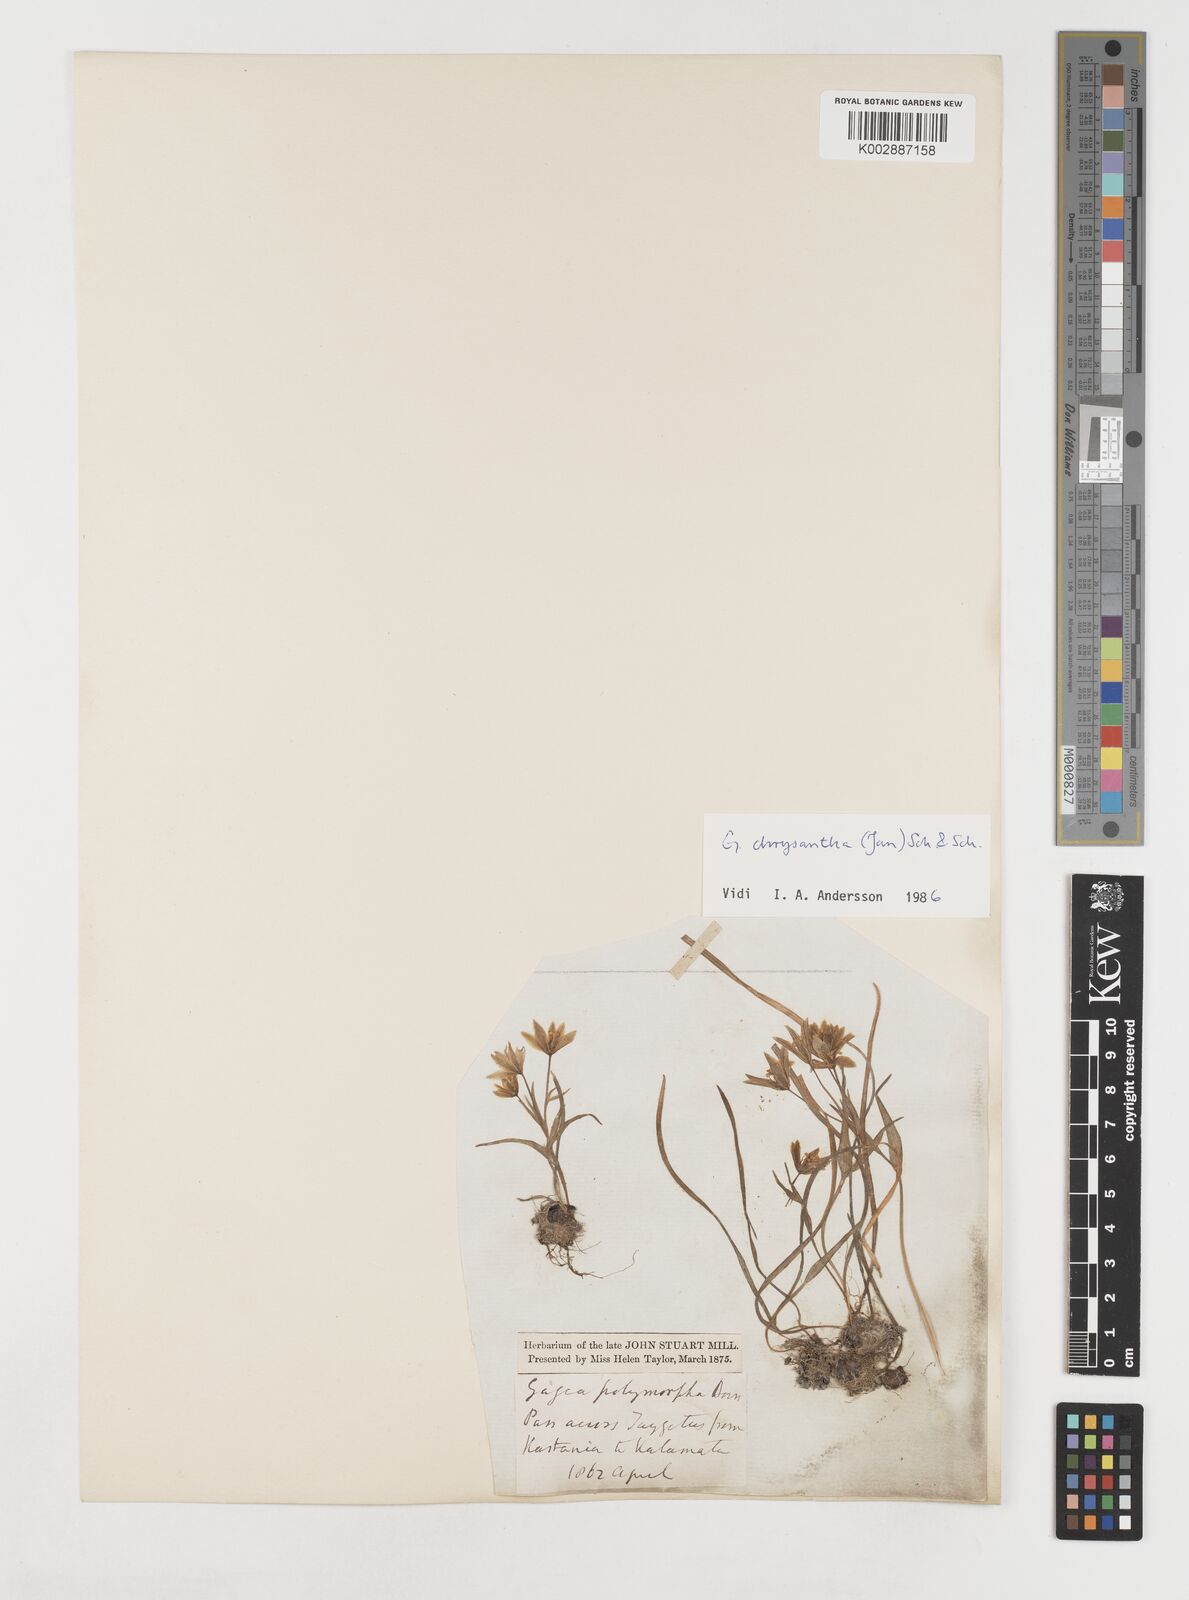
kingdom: Plantae
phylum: Tracheophyta
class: Liliopsida
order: Liliales
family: Liliaceae
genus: Gagea
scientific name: Gagea peduncularis
